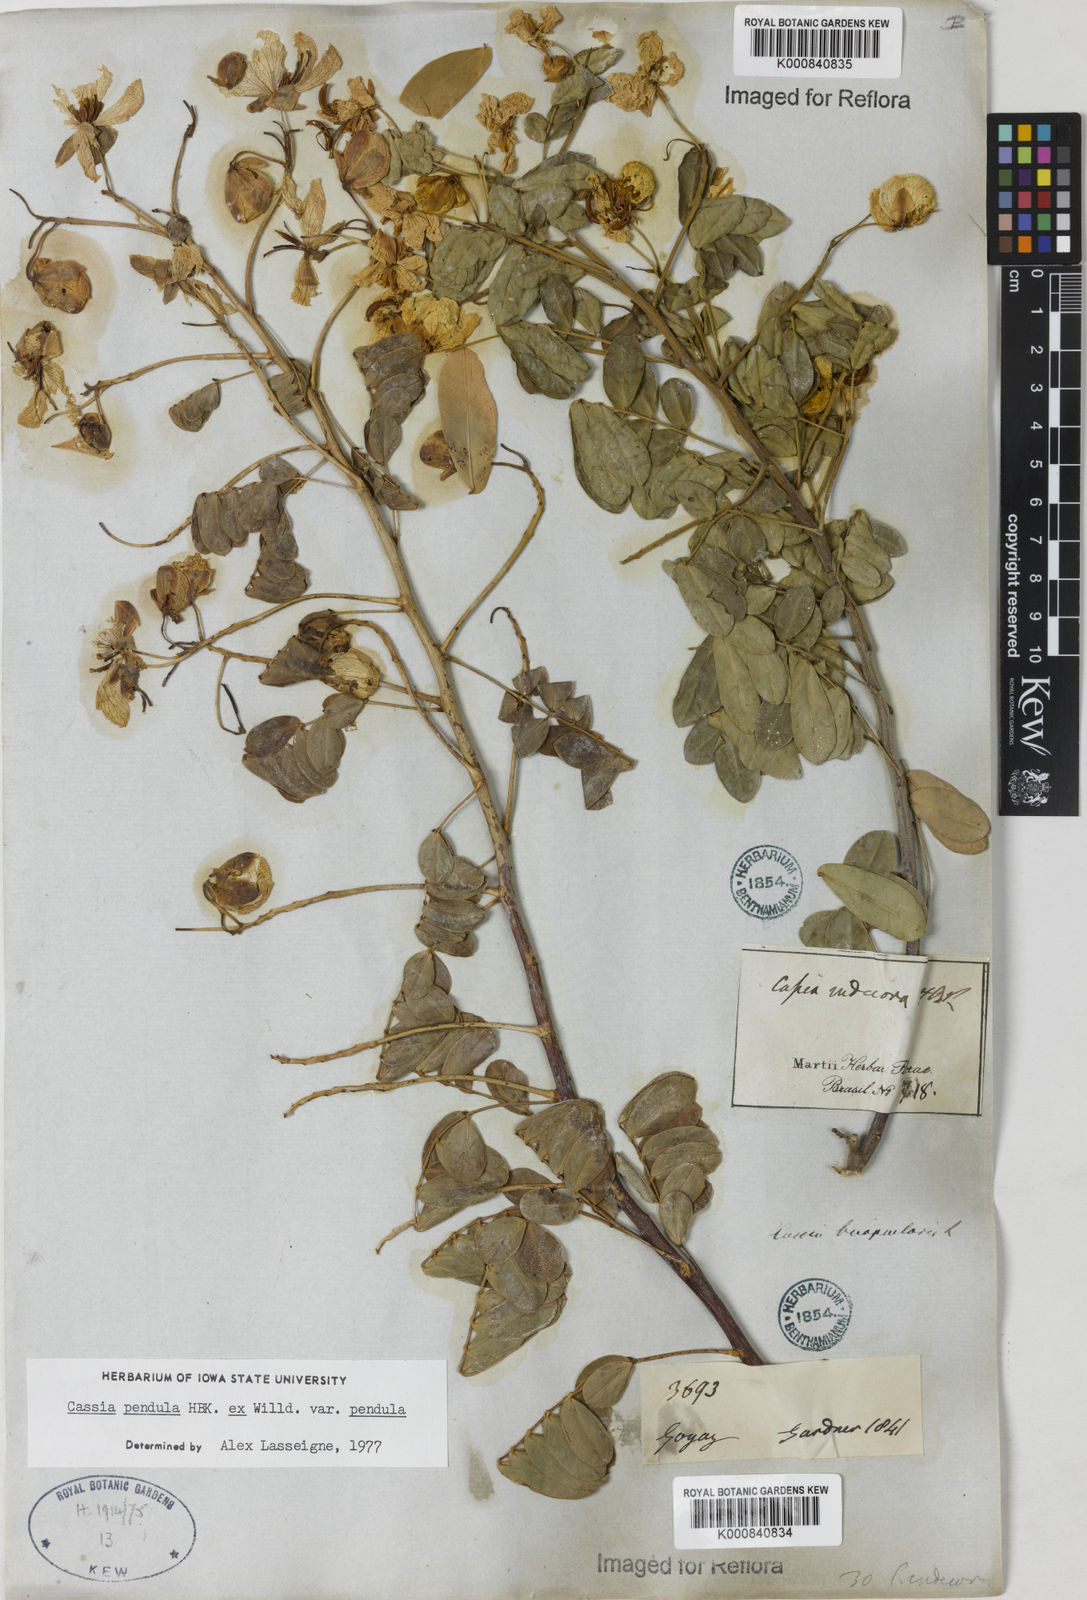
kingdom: Plantae
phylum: Tracheophyta
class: Magnoliopsida
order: Fabales
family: Fabaceae
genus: Senna
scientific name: Senna pendula
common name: Easter cassia
